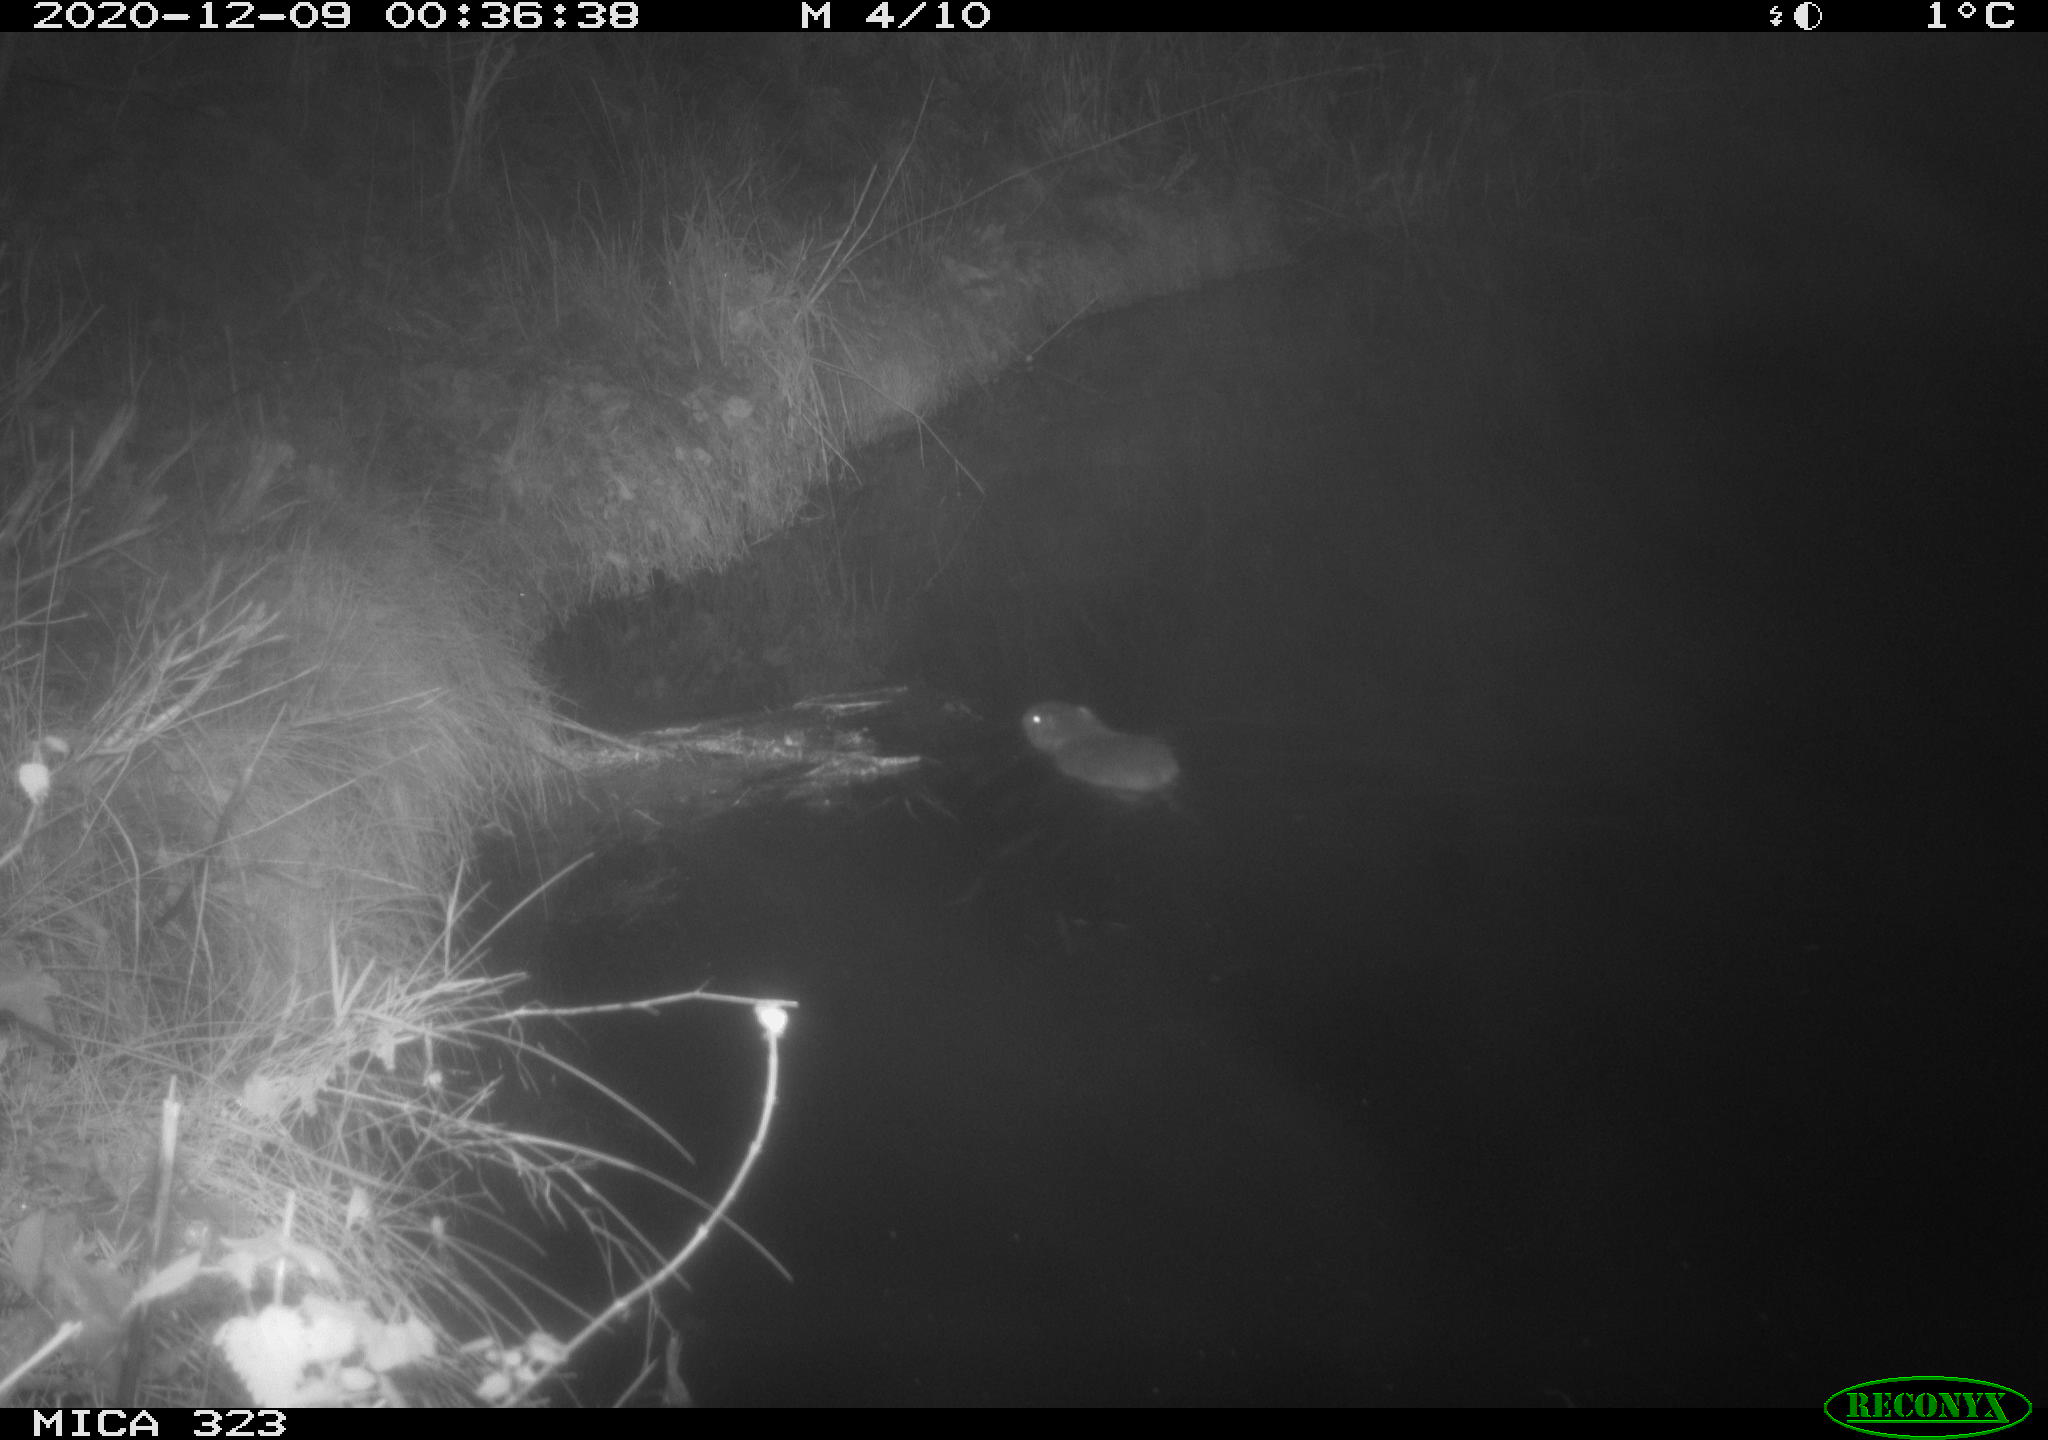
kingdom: Animalia
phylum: Chordata
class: Mammalia
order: Rodentia
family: Myocastoridae
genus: Myocastor
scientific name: Myocastor coypus
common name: Coypu
